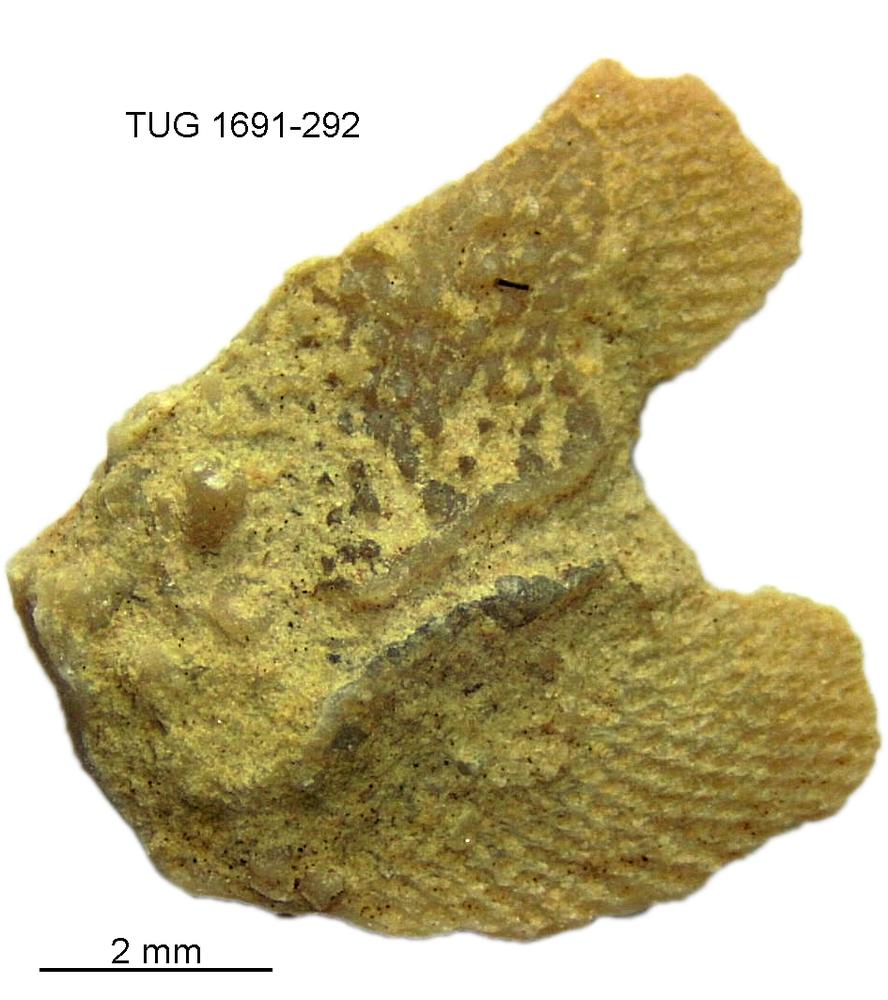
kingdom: Animalia
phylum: Bryozoa
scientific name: Bryozoa
